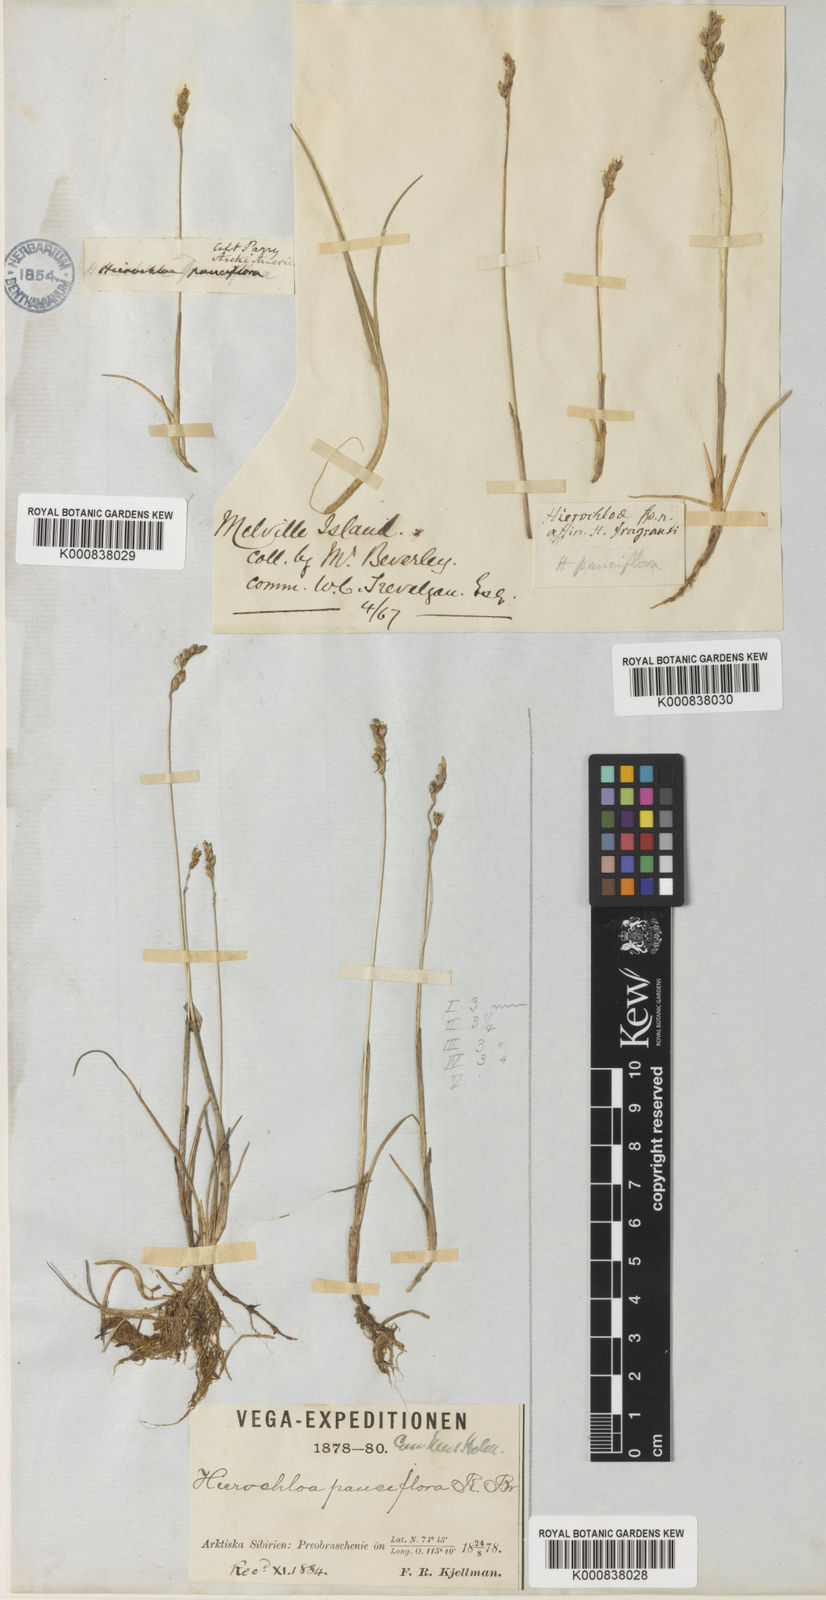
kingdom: Plantae
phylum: Tracheophyta
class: Liliopsida
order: Poales
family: Poaceae
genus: Anthoxanthum
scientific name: Anthoxanthum arcticum
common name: Arctic sweetgrass
